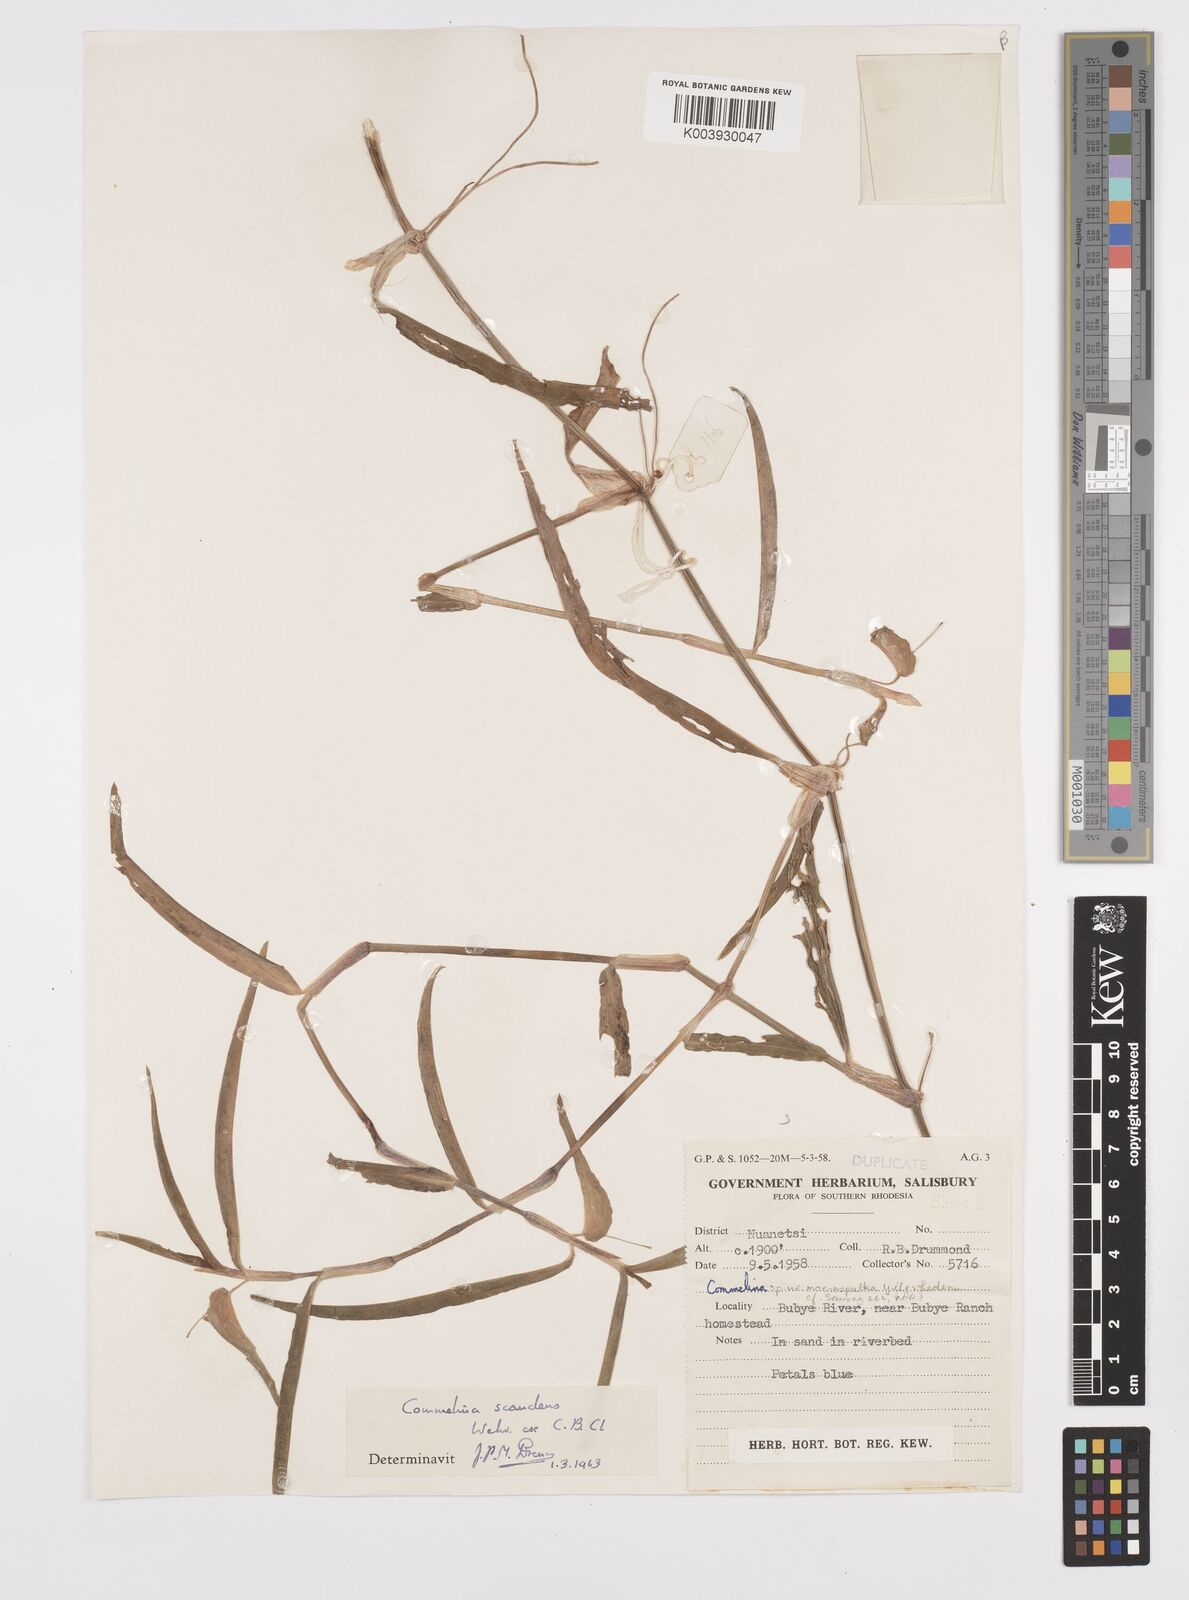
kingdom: Plantae
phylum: Tracheophyta
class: Liliopsida
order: Commelinales
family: Commelinaceae
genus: Commelina
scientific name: Commelina diffusa
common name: Climbing dayflower
